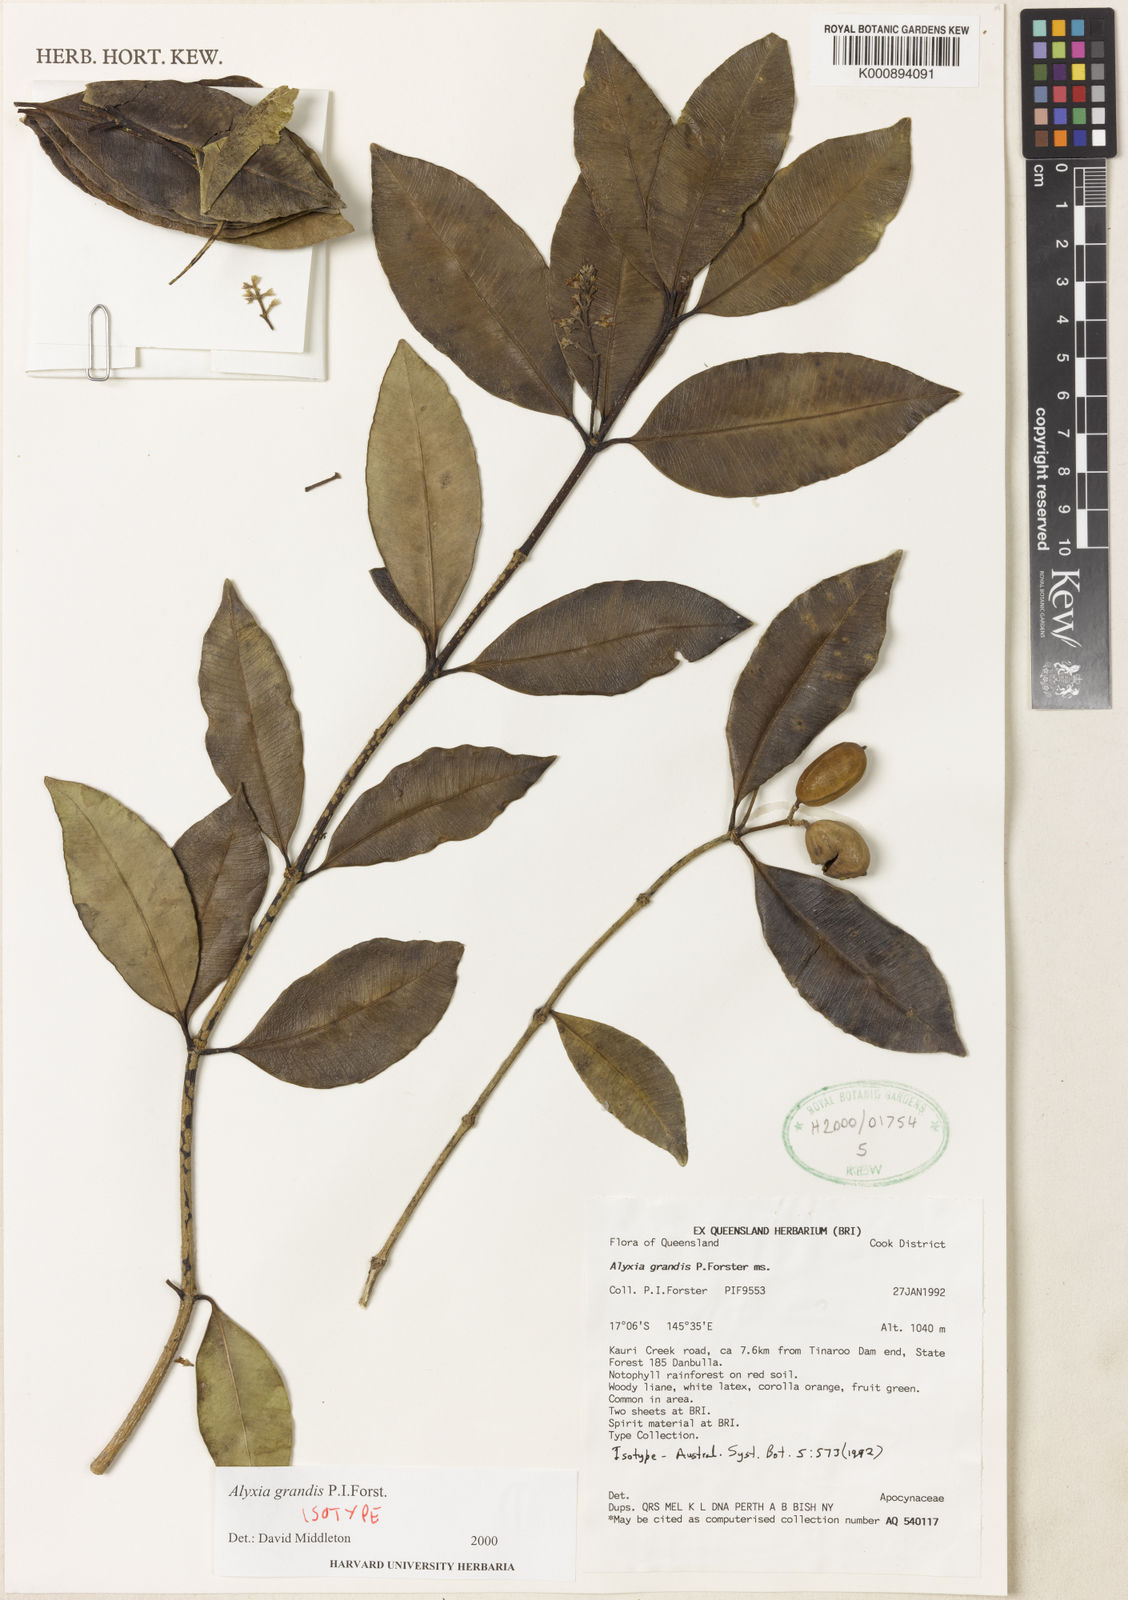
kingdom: Plantae
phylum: Tracheophyta
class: Magnoliopsida
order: Gentianales
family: Apocynaceae
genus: Alyxia
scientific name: Alyxia grandis
